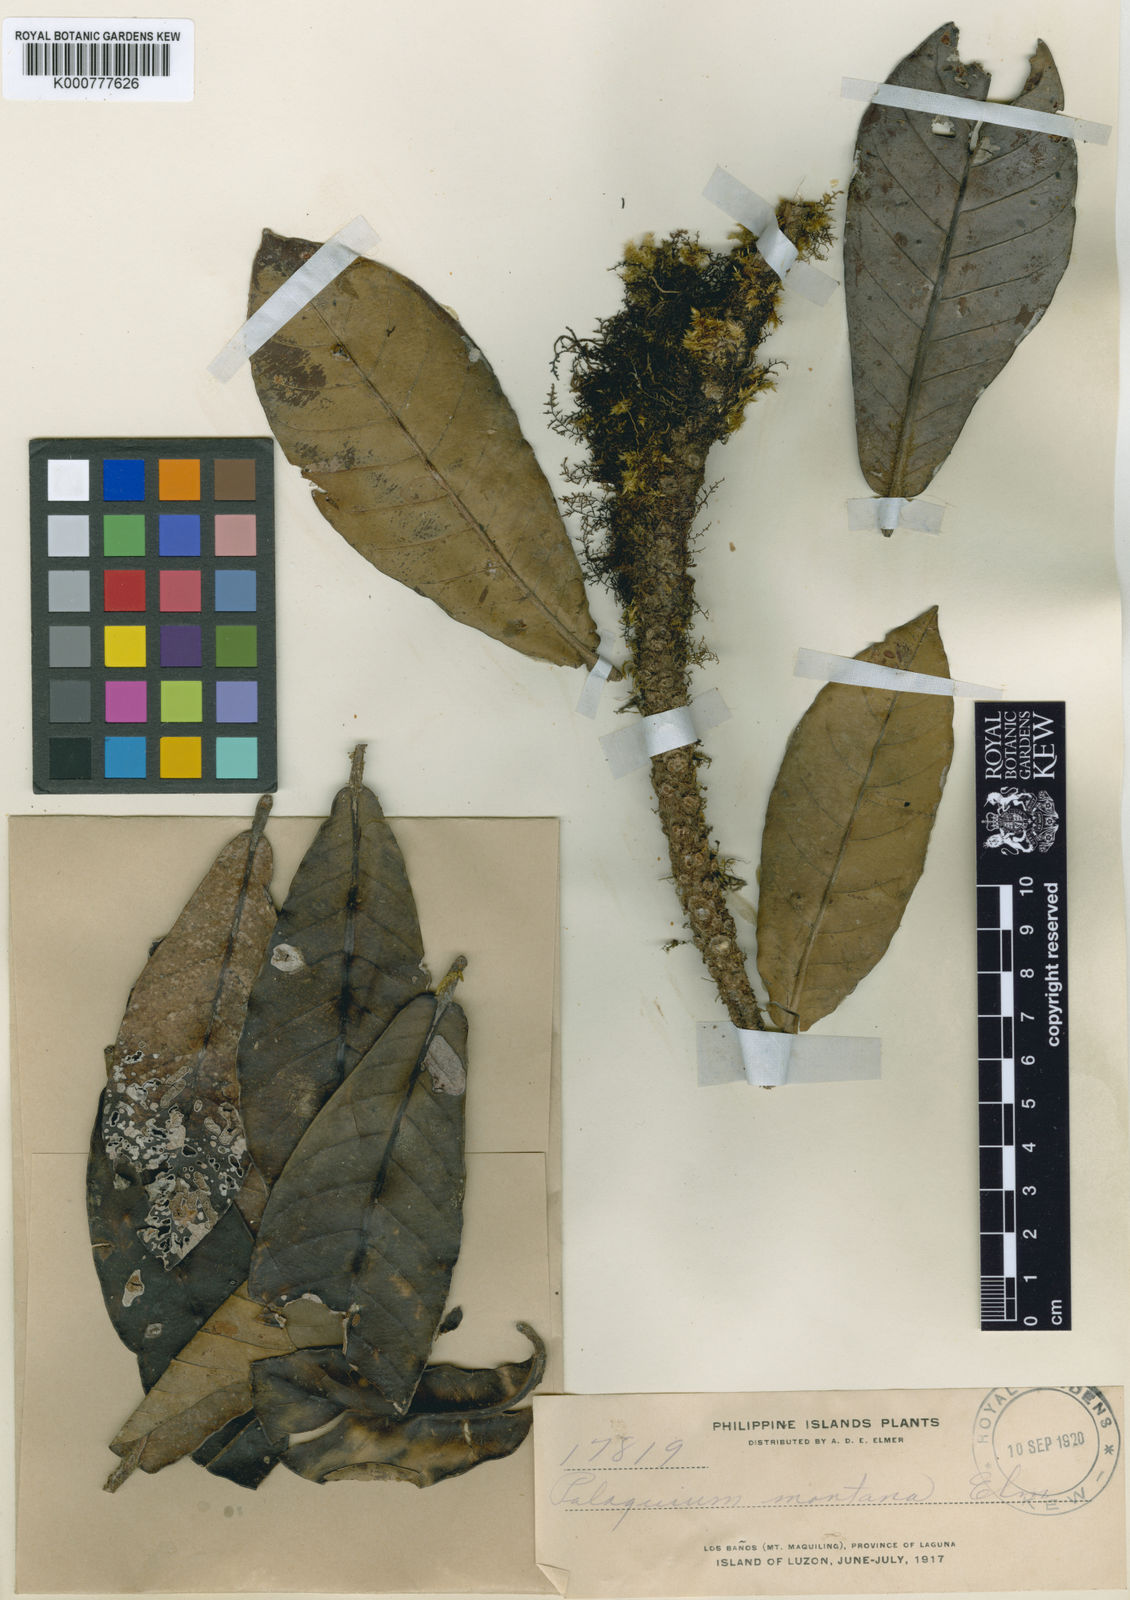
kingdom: Plantae
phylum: Tracheophyta
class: Magnoliopsida
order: Ericales
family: Sapotaceae
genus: Palaquium
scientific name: Palaquium
